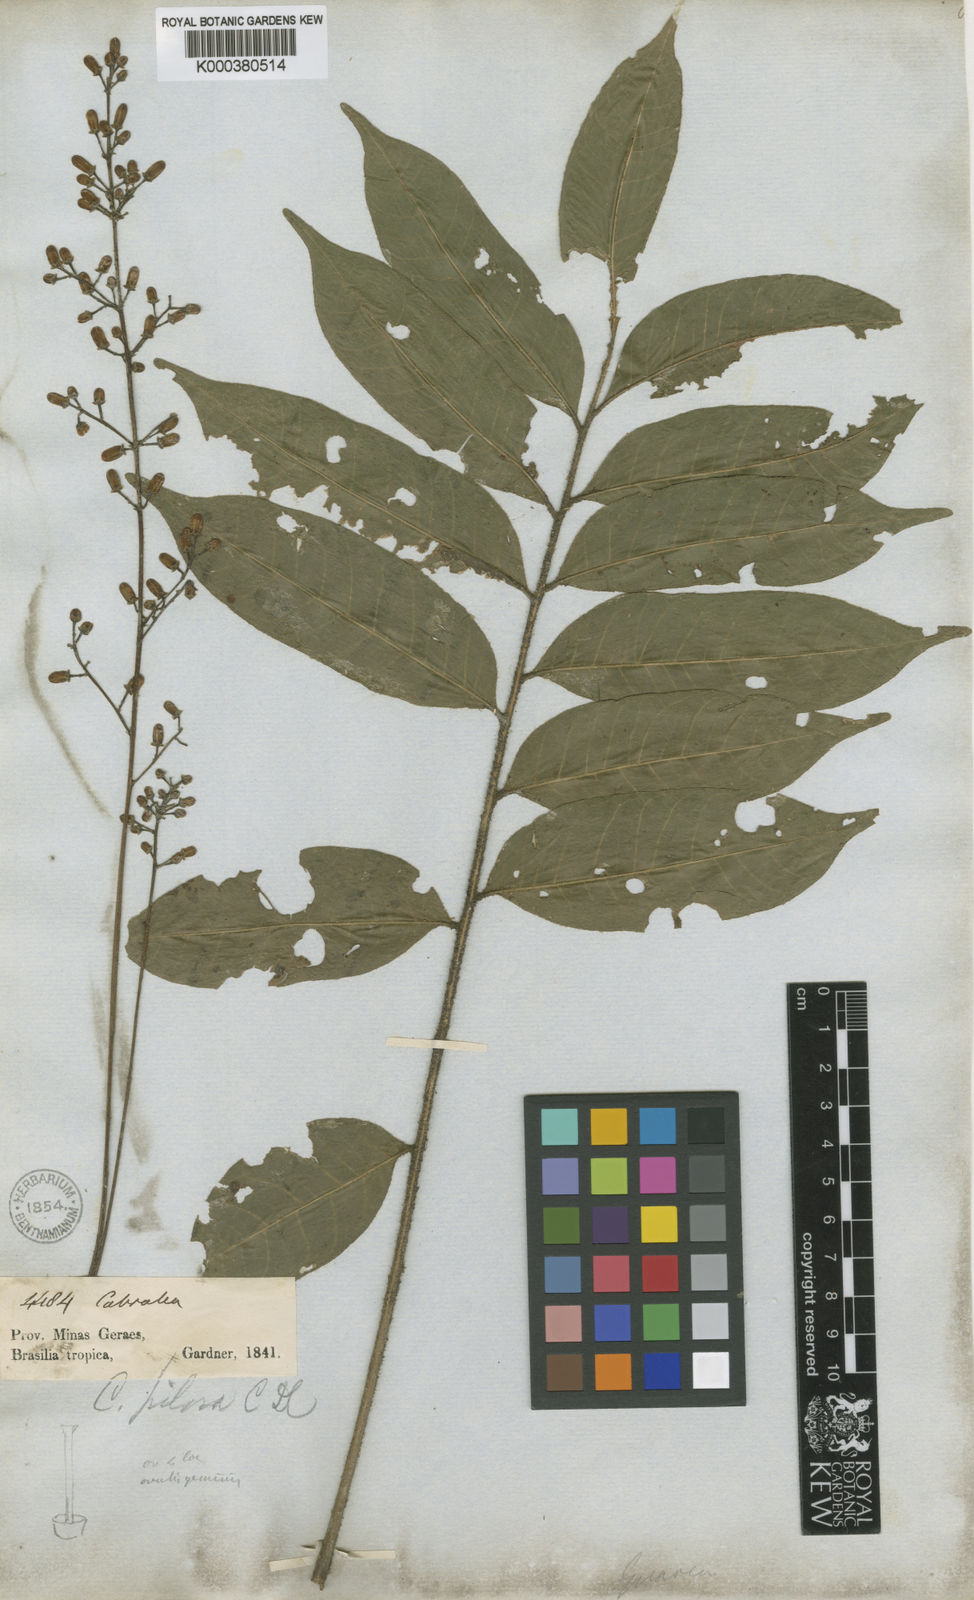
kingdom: Plantae
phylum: Tracheophyta
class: Magnoliopsida
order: Sapindales
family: Meliaceae
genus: Cabralea
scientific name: Cabralea canjerana
